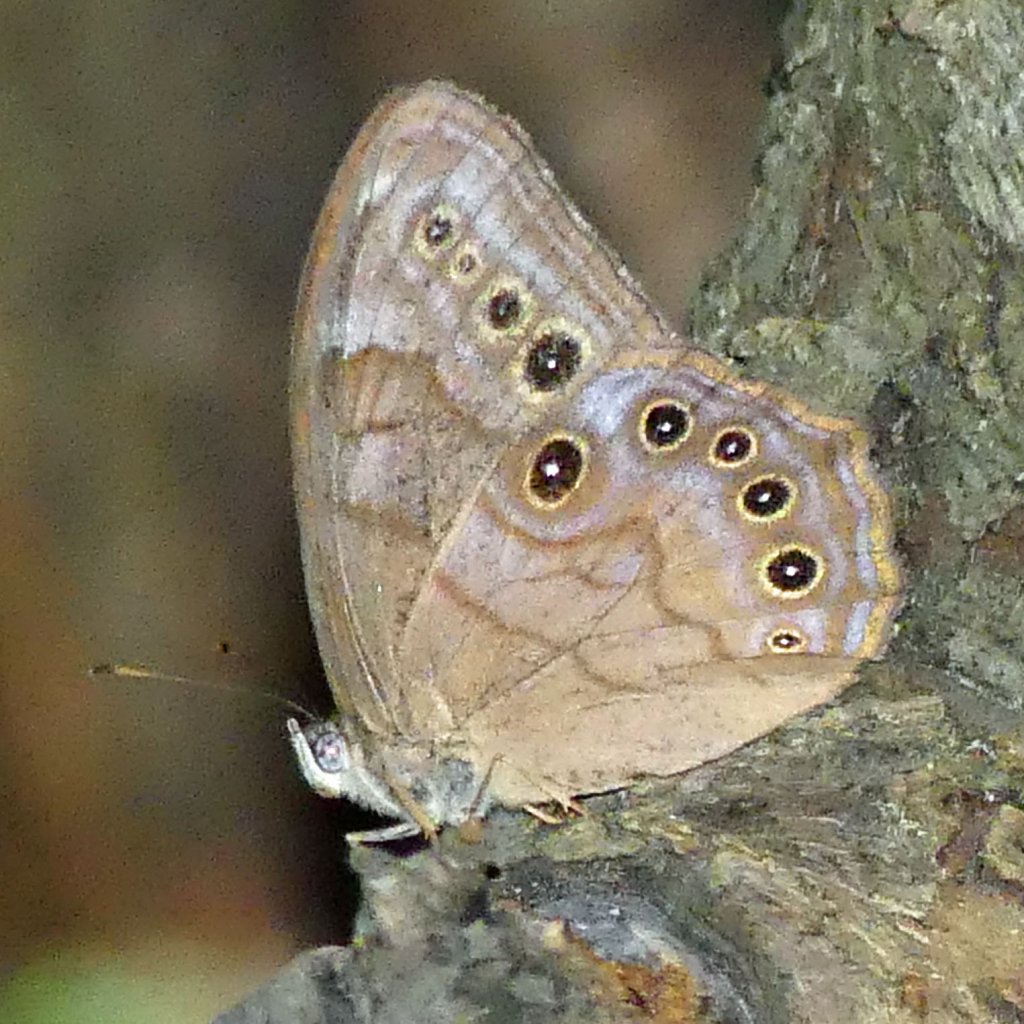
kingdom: Animalia
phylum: Arthropoda
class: Insecta
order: Lepidoptera
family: Nymphalidae
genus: Lethe
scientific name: Lethe anthedon
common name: Northern Pearly-Eye
